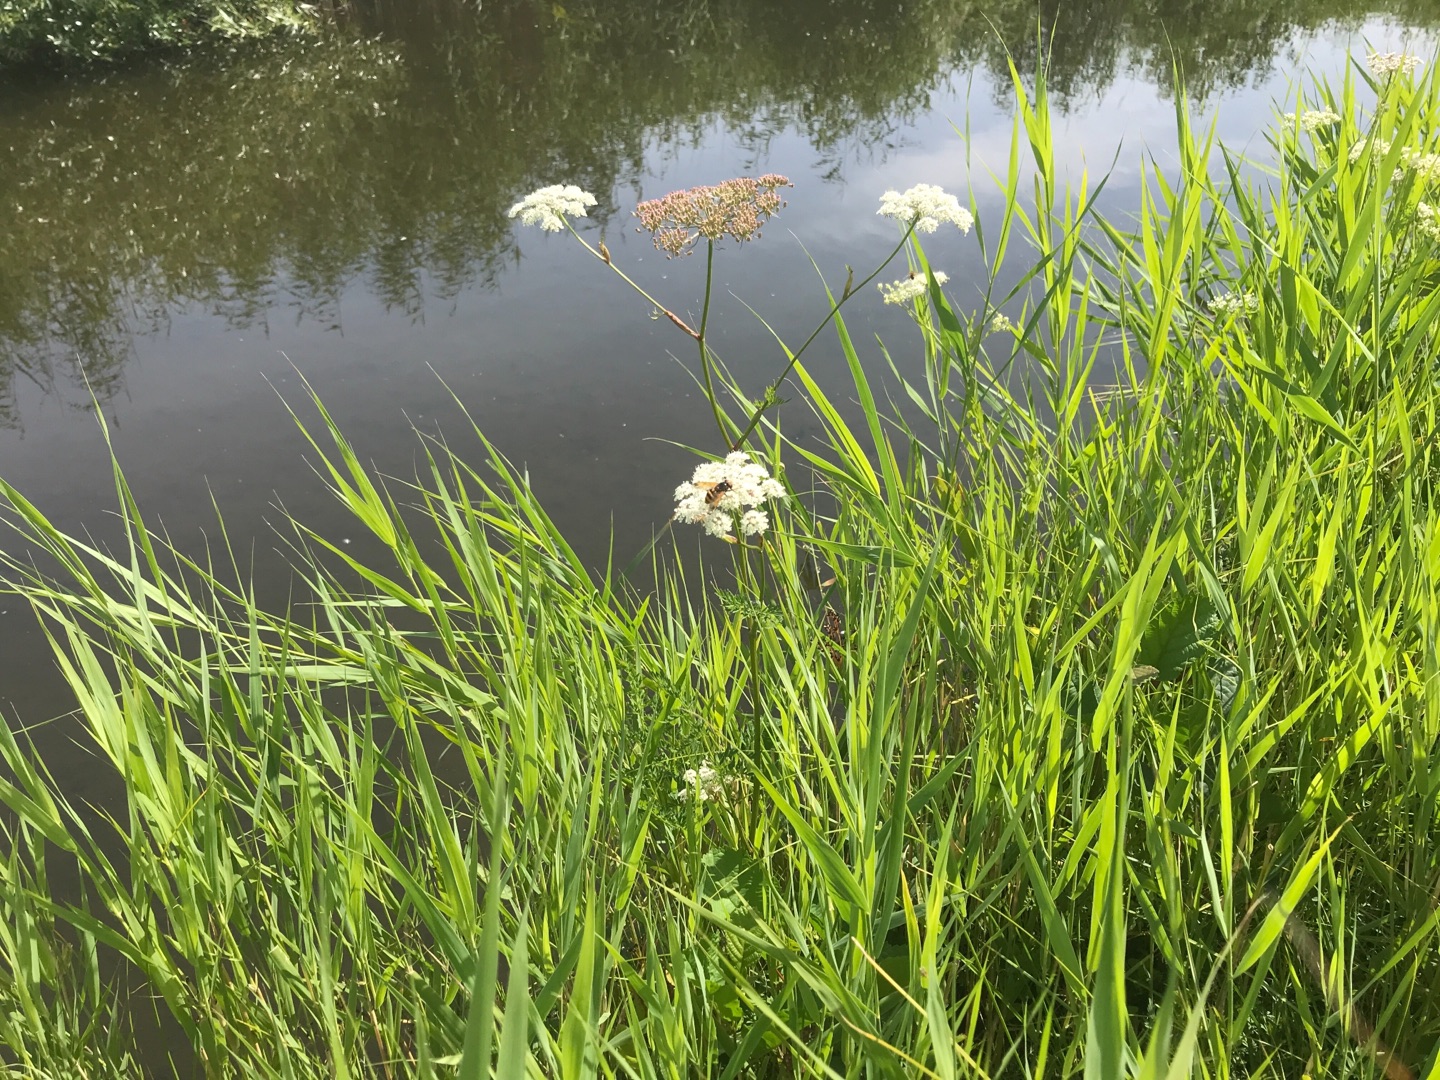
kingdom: Animalia
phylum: Arthropoda
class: Insecta
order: Diptera
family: Syrphidae
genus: Volucella
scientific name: Volucella zonaria
